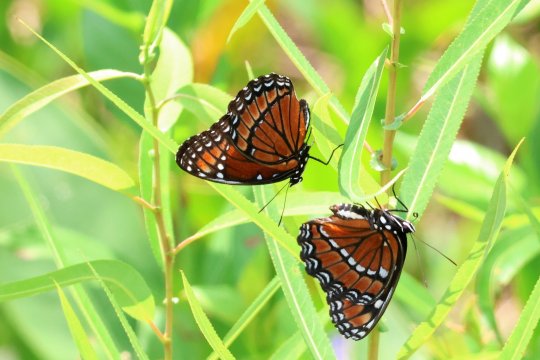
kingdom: Animalia
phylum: Arthropoda
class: Insecta
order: Lepidoptera
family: Nymphalidae
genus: Limenitis
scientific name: Limenitis archippus
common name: Viceroy
